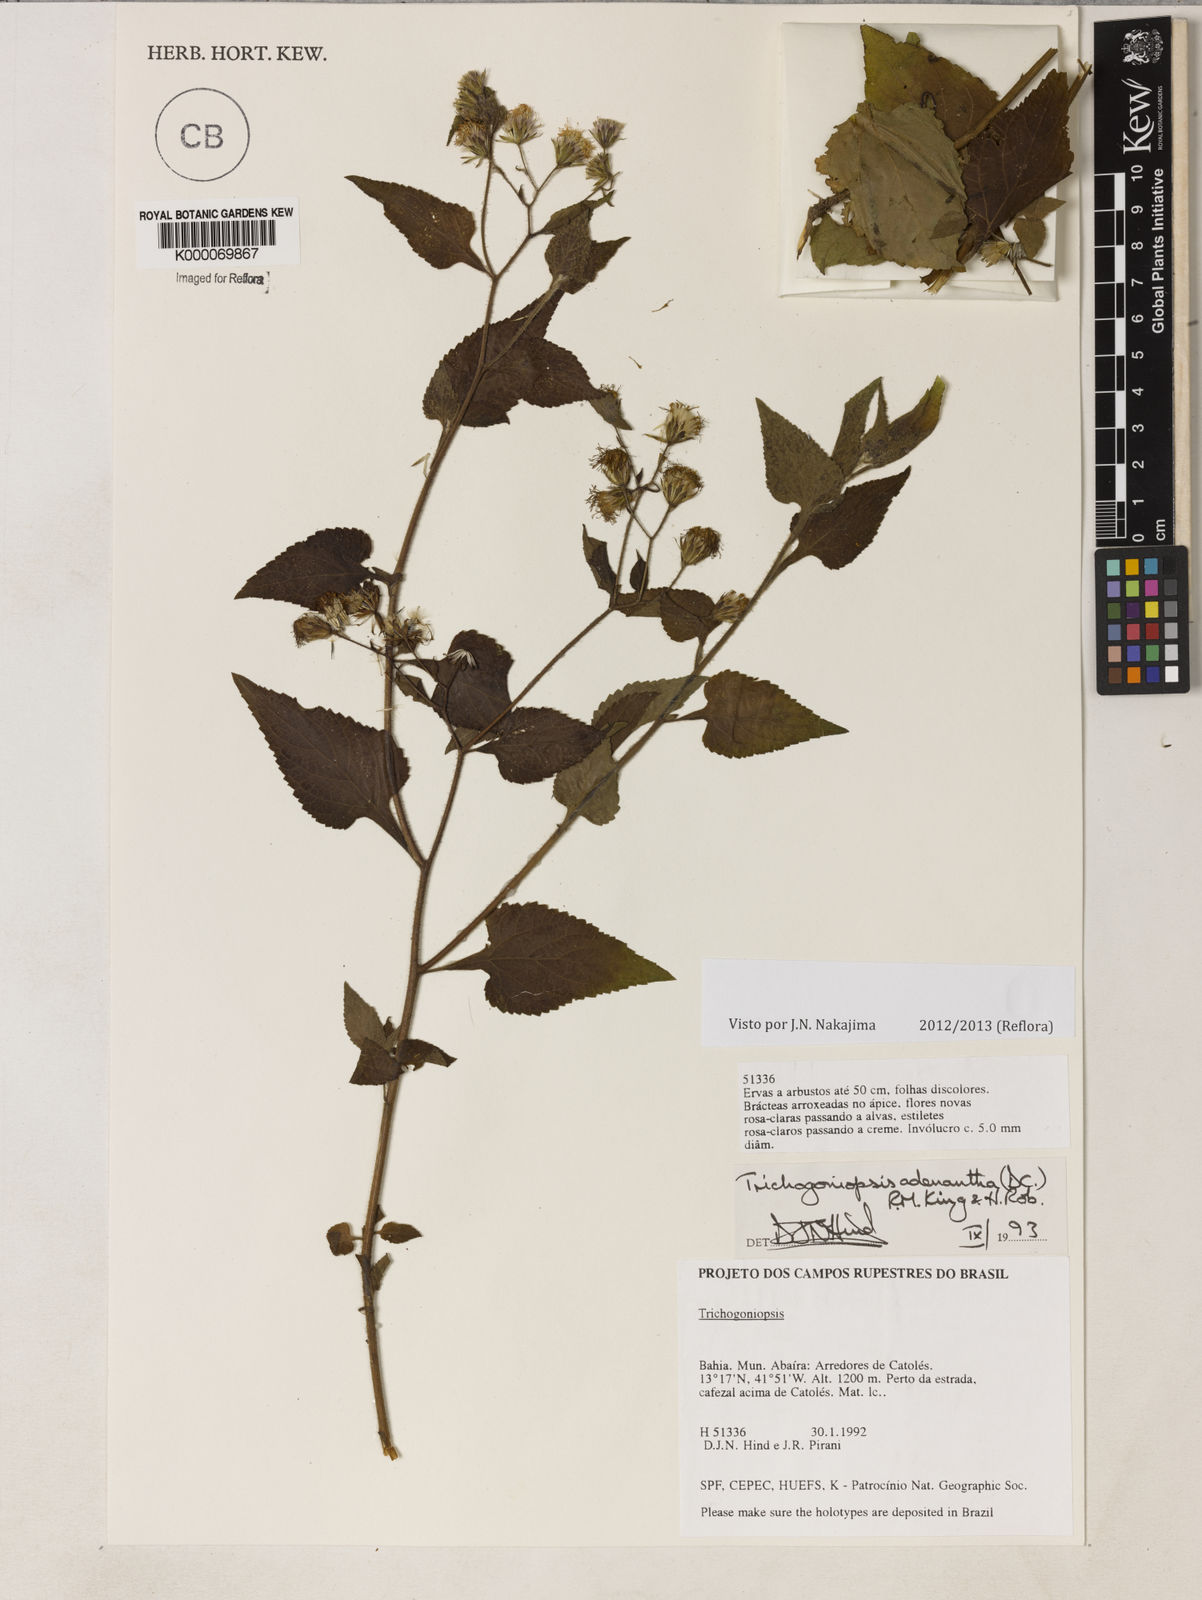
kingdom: Plantae
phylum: Tracheophyta
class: Magnoliopsida
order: Asterales
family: Asteraceae
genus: Trichogoniopsis
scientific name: Trichogoniopsis adenantha
